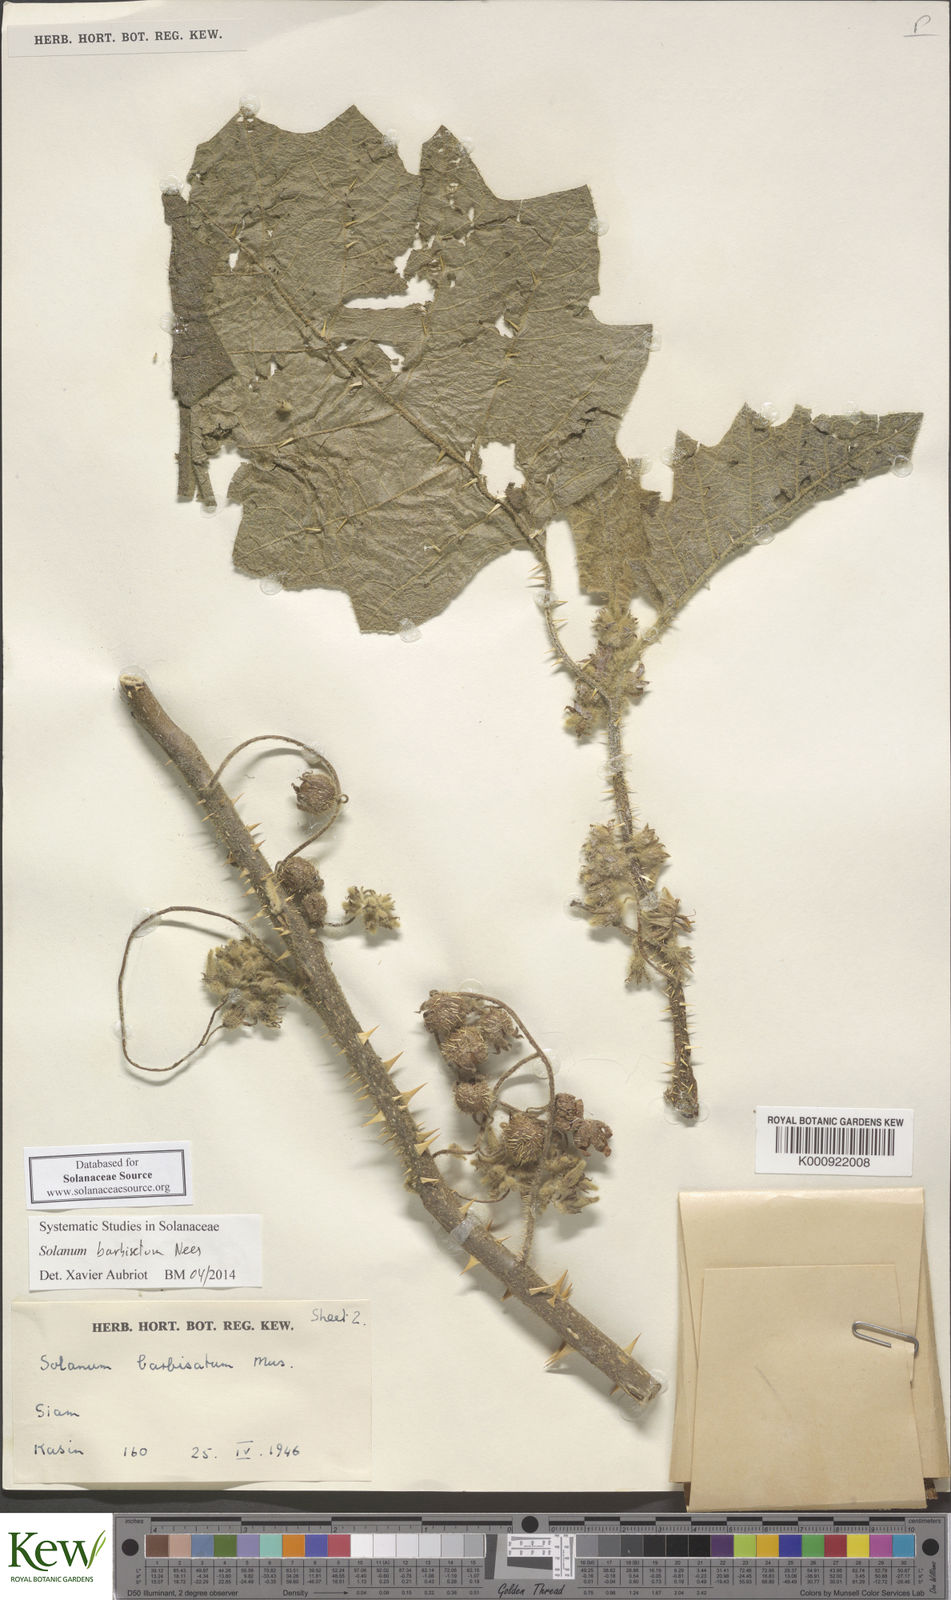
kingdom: Plantae
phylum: Tracheophyta
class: Magnoliopsida
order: Solanales
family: Solanaceae
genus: Solanum
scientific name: Solanum barbisetum
